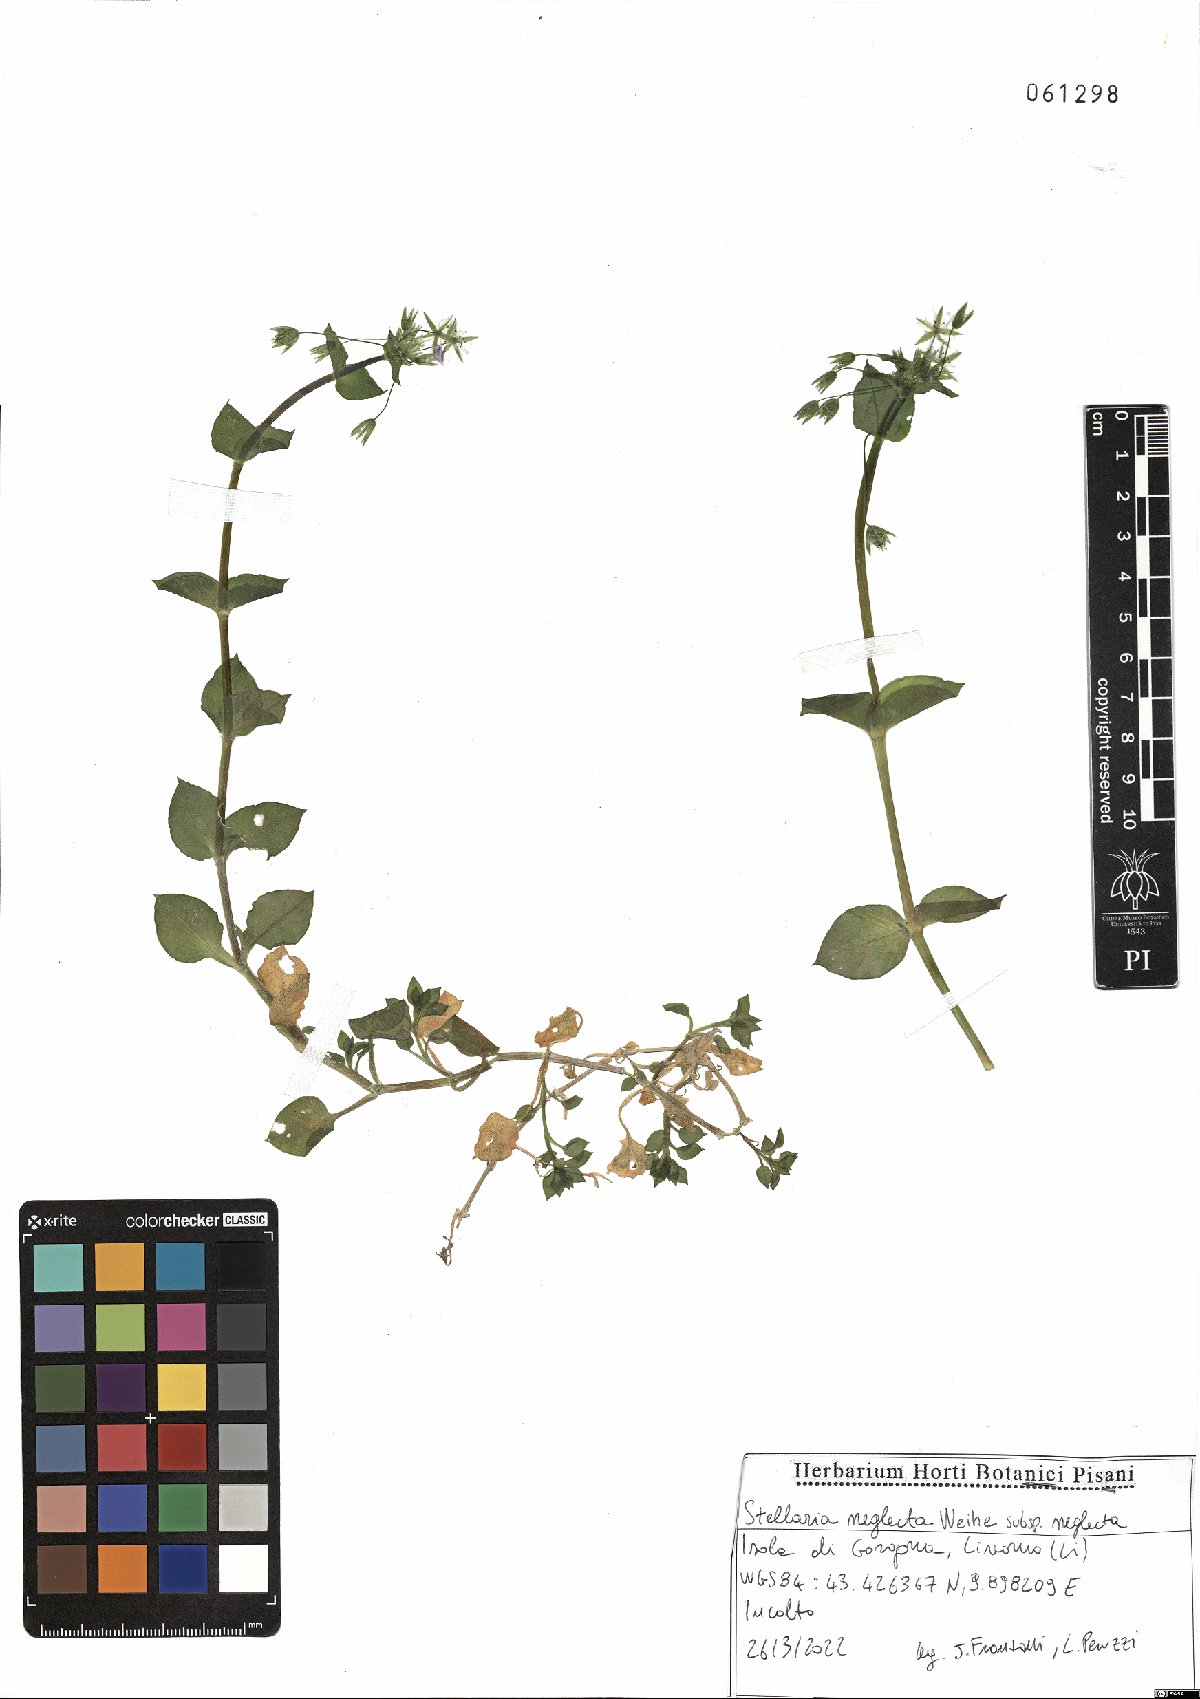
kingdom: Plantae
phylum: Tracheophyta
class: Magnoliopsida
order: Caryophyllales
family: Caryophyllaceae
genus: Stellaria
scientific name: Stellaria neglecta
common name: Greater chickweed
